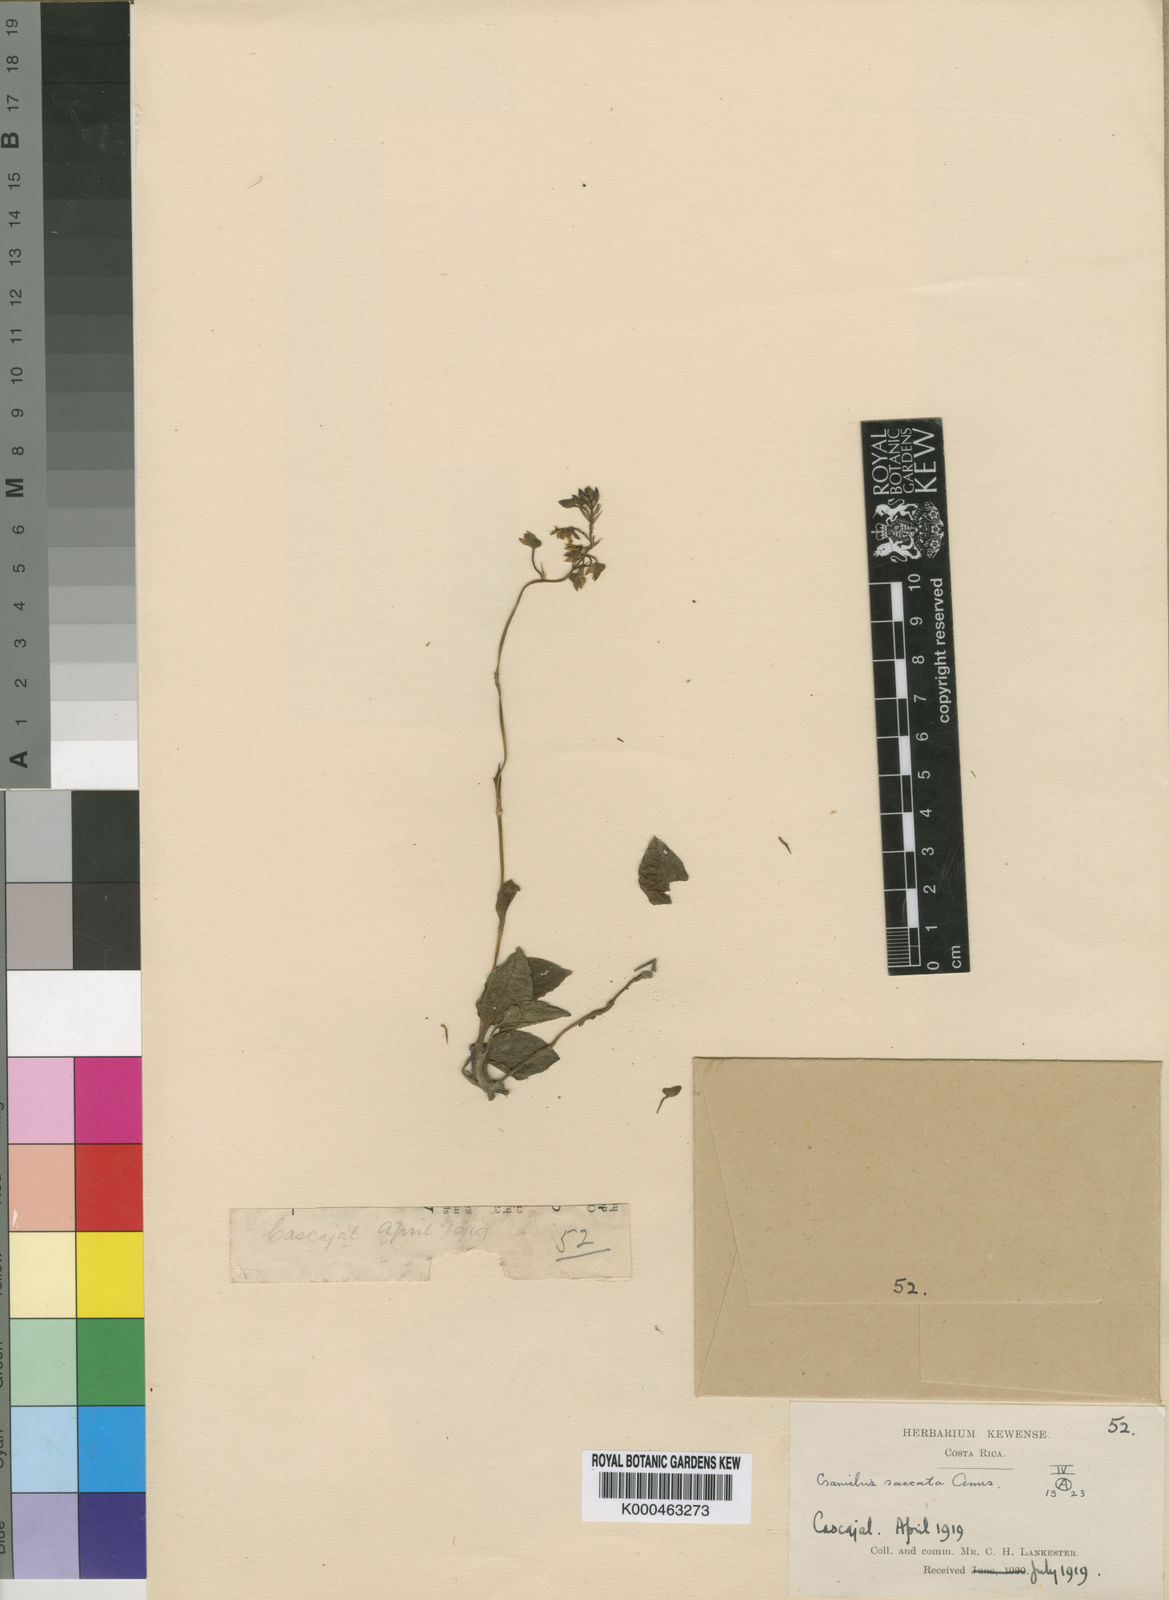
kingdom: Plantae
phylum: Tracheophyta
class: Liliopsida
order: Asparagales
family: Orchidaceae
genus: Cranichis
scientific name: Cranichis saccata
